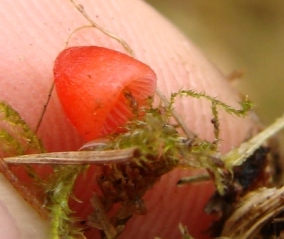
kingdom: Fungi
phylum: Basidiomycota
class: Agaricomycetes
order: Agaricales
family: Mycenaceae
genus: Atheniella
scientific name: Atheniella adonis
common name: rønnerød huesvamp
